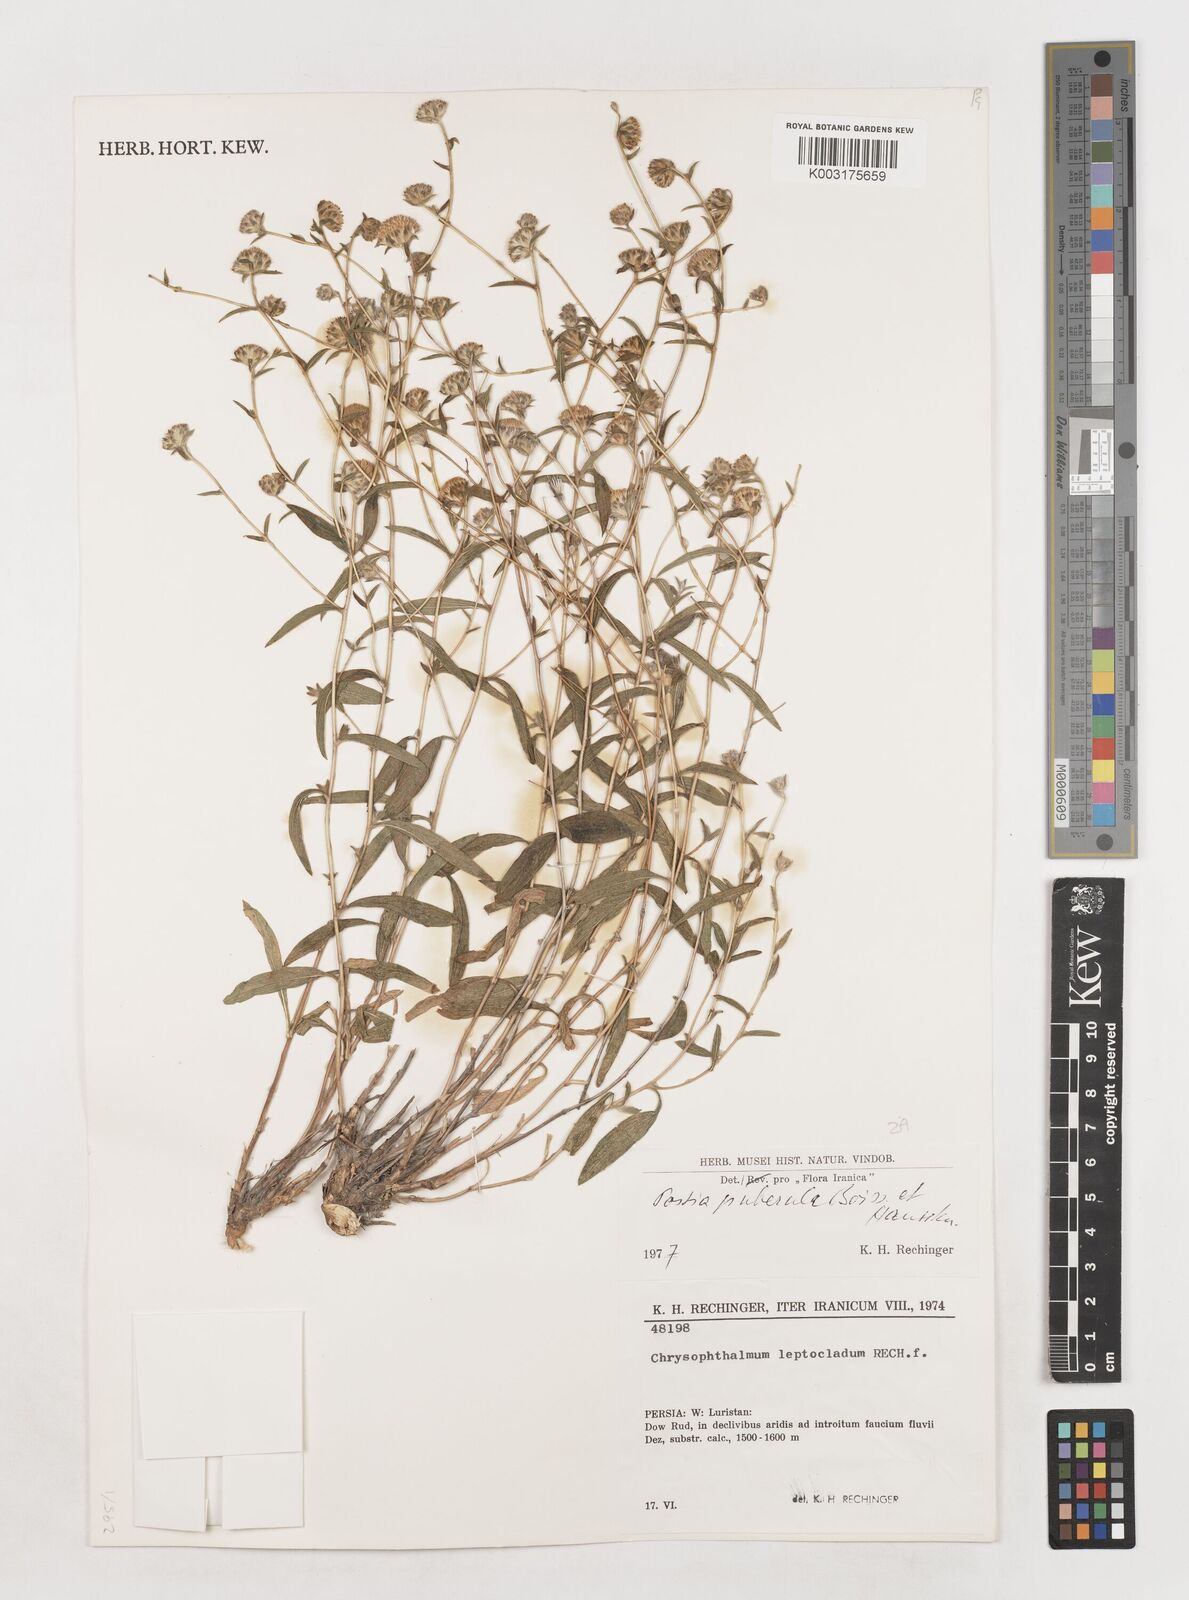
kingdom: Plantae
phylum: Tracheophyta
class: Magnoliopsida
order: Asterales
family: Asteraceae
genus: Rhanteriopsis
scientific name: Rhanteriopsis puberula
